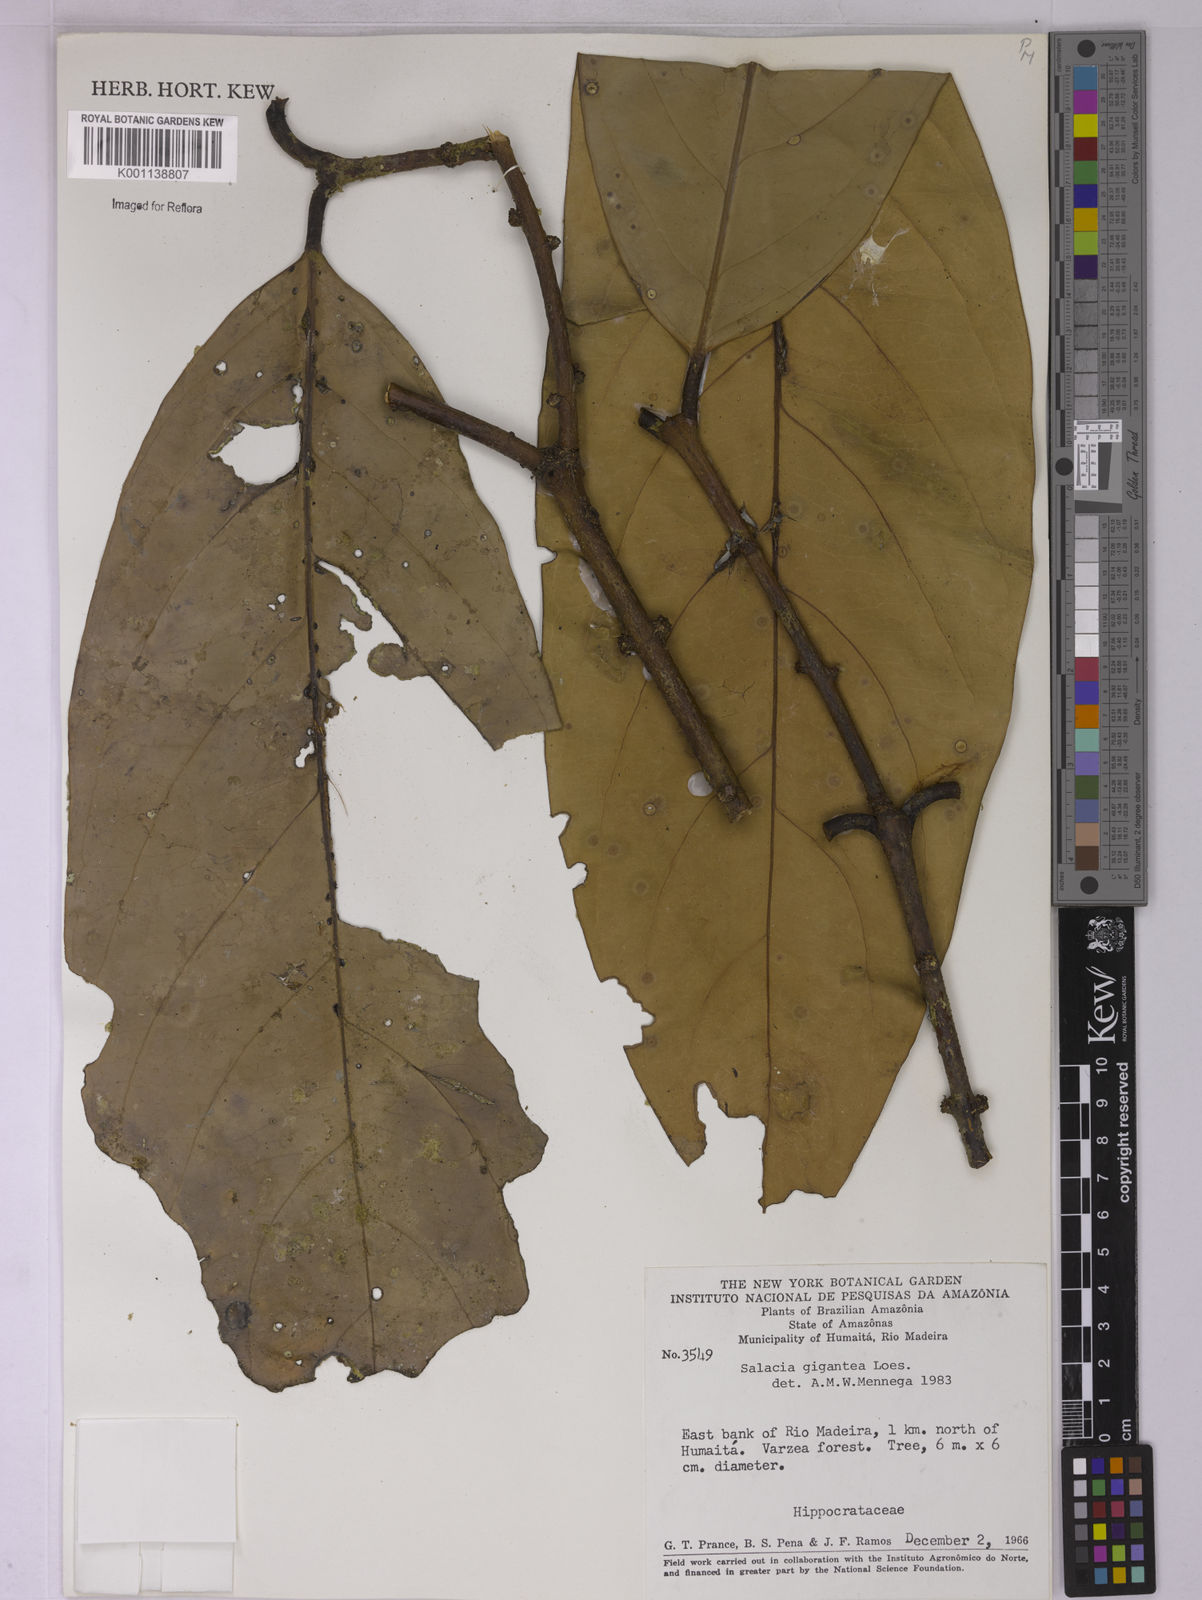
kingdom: Plantae
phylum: Tracheophyta
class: Magnoliopsida
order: Celastrales
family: Celastraceae
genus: Salacia
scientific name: Salacia gigantea
